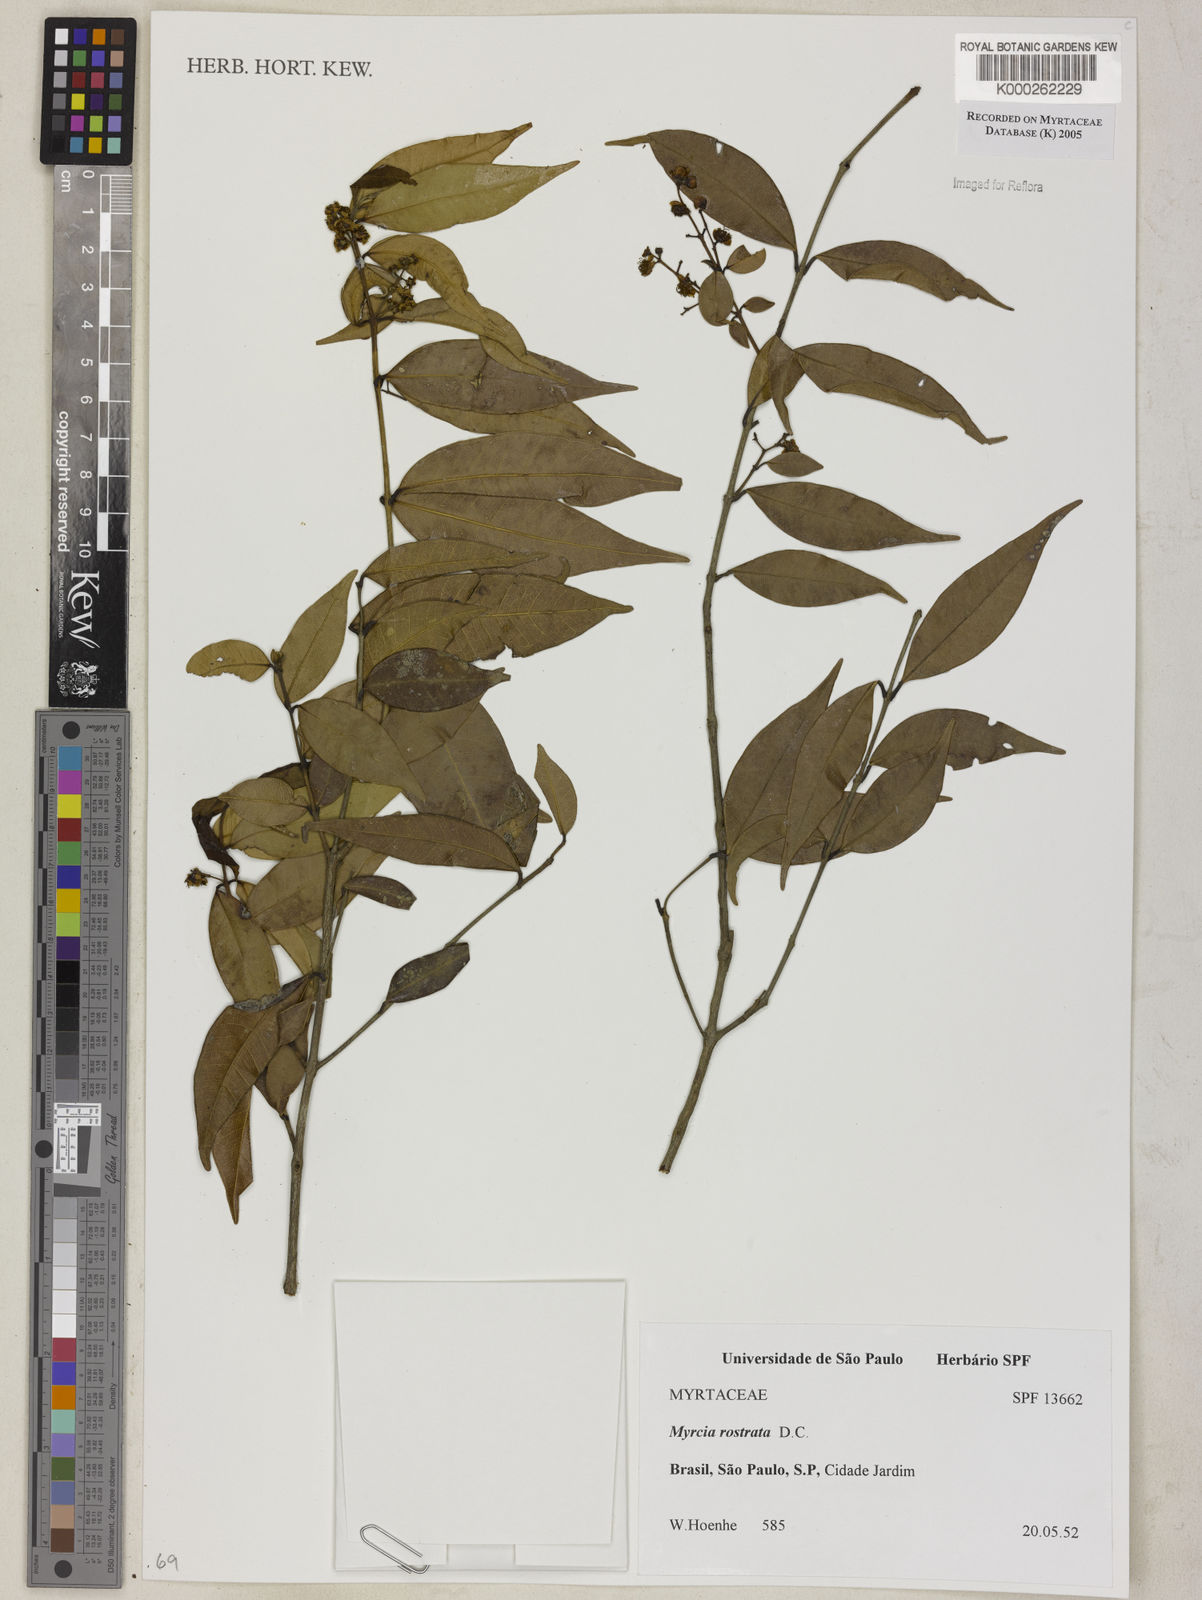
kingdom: Plantae
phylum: Tracheophyta
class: Magnoliopsida
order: Myrtales
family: Myrtaceae
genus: Myrcia
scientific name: Myrcia splendens
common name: Surinam cherry
